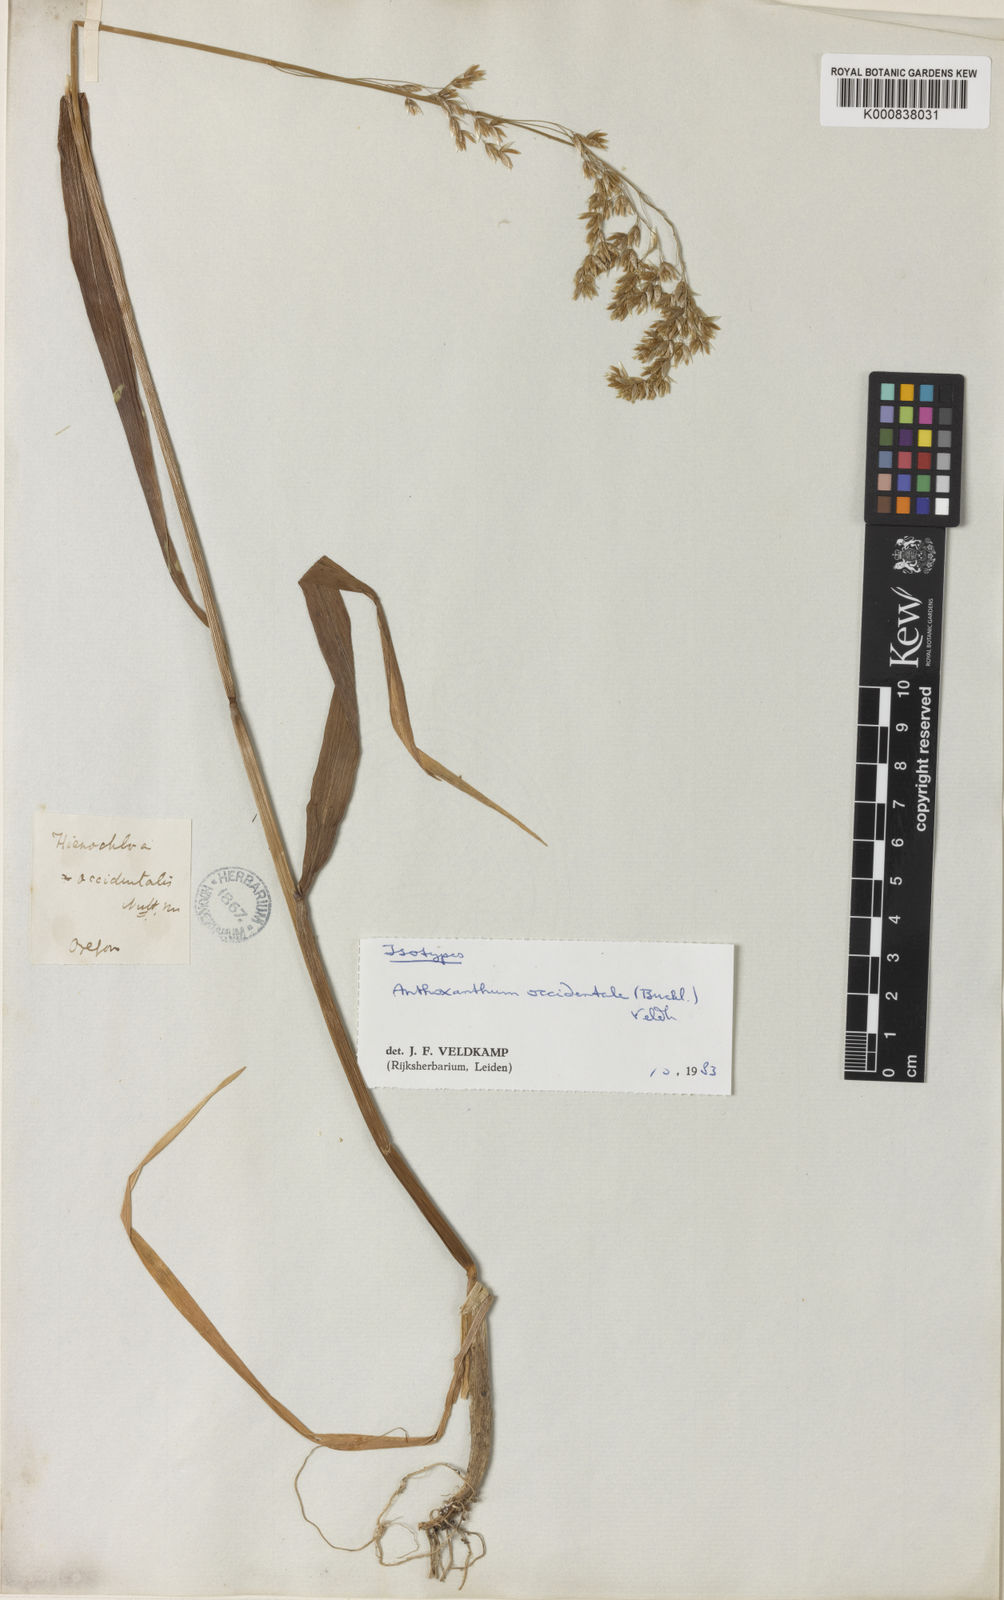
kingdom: Plantae
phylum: Tracheophyta
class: Liliopsida
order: Poales
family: Poaceae
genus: Anthoxanthum
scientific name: Anthoxanthum occidentale
